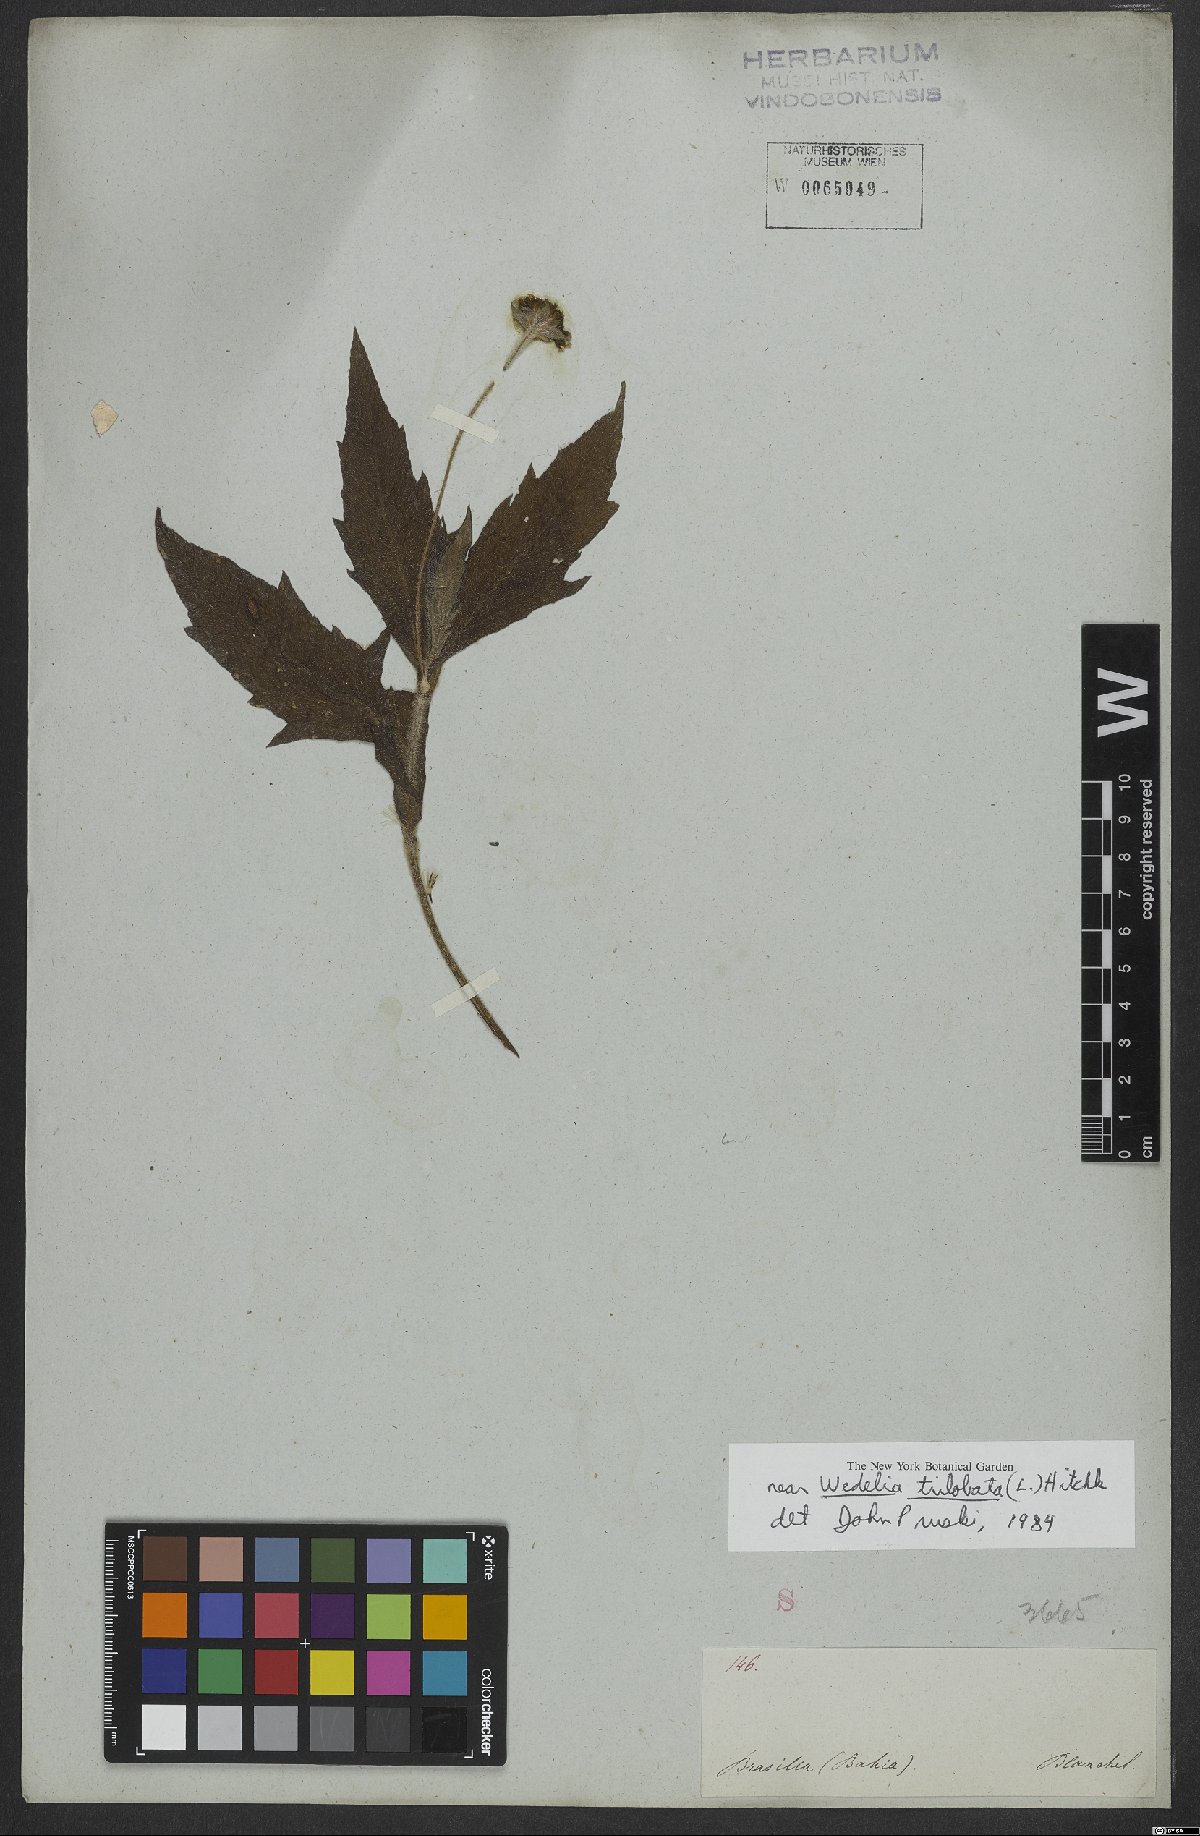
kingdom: Plantae
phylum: Tracheophyta
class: Magnoliopsida
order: Asterales
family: Asteraceae
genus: Sphagneticola
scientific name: Sphagneticola trilobata
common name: Bay biscayne creeping-oxeye
